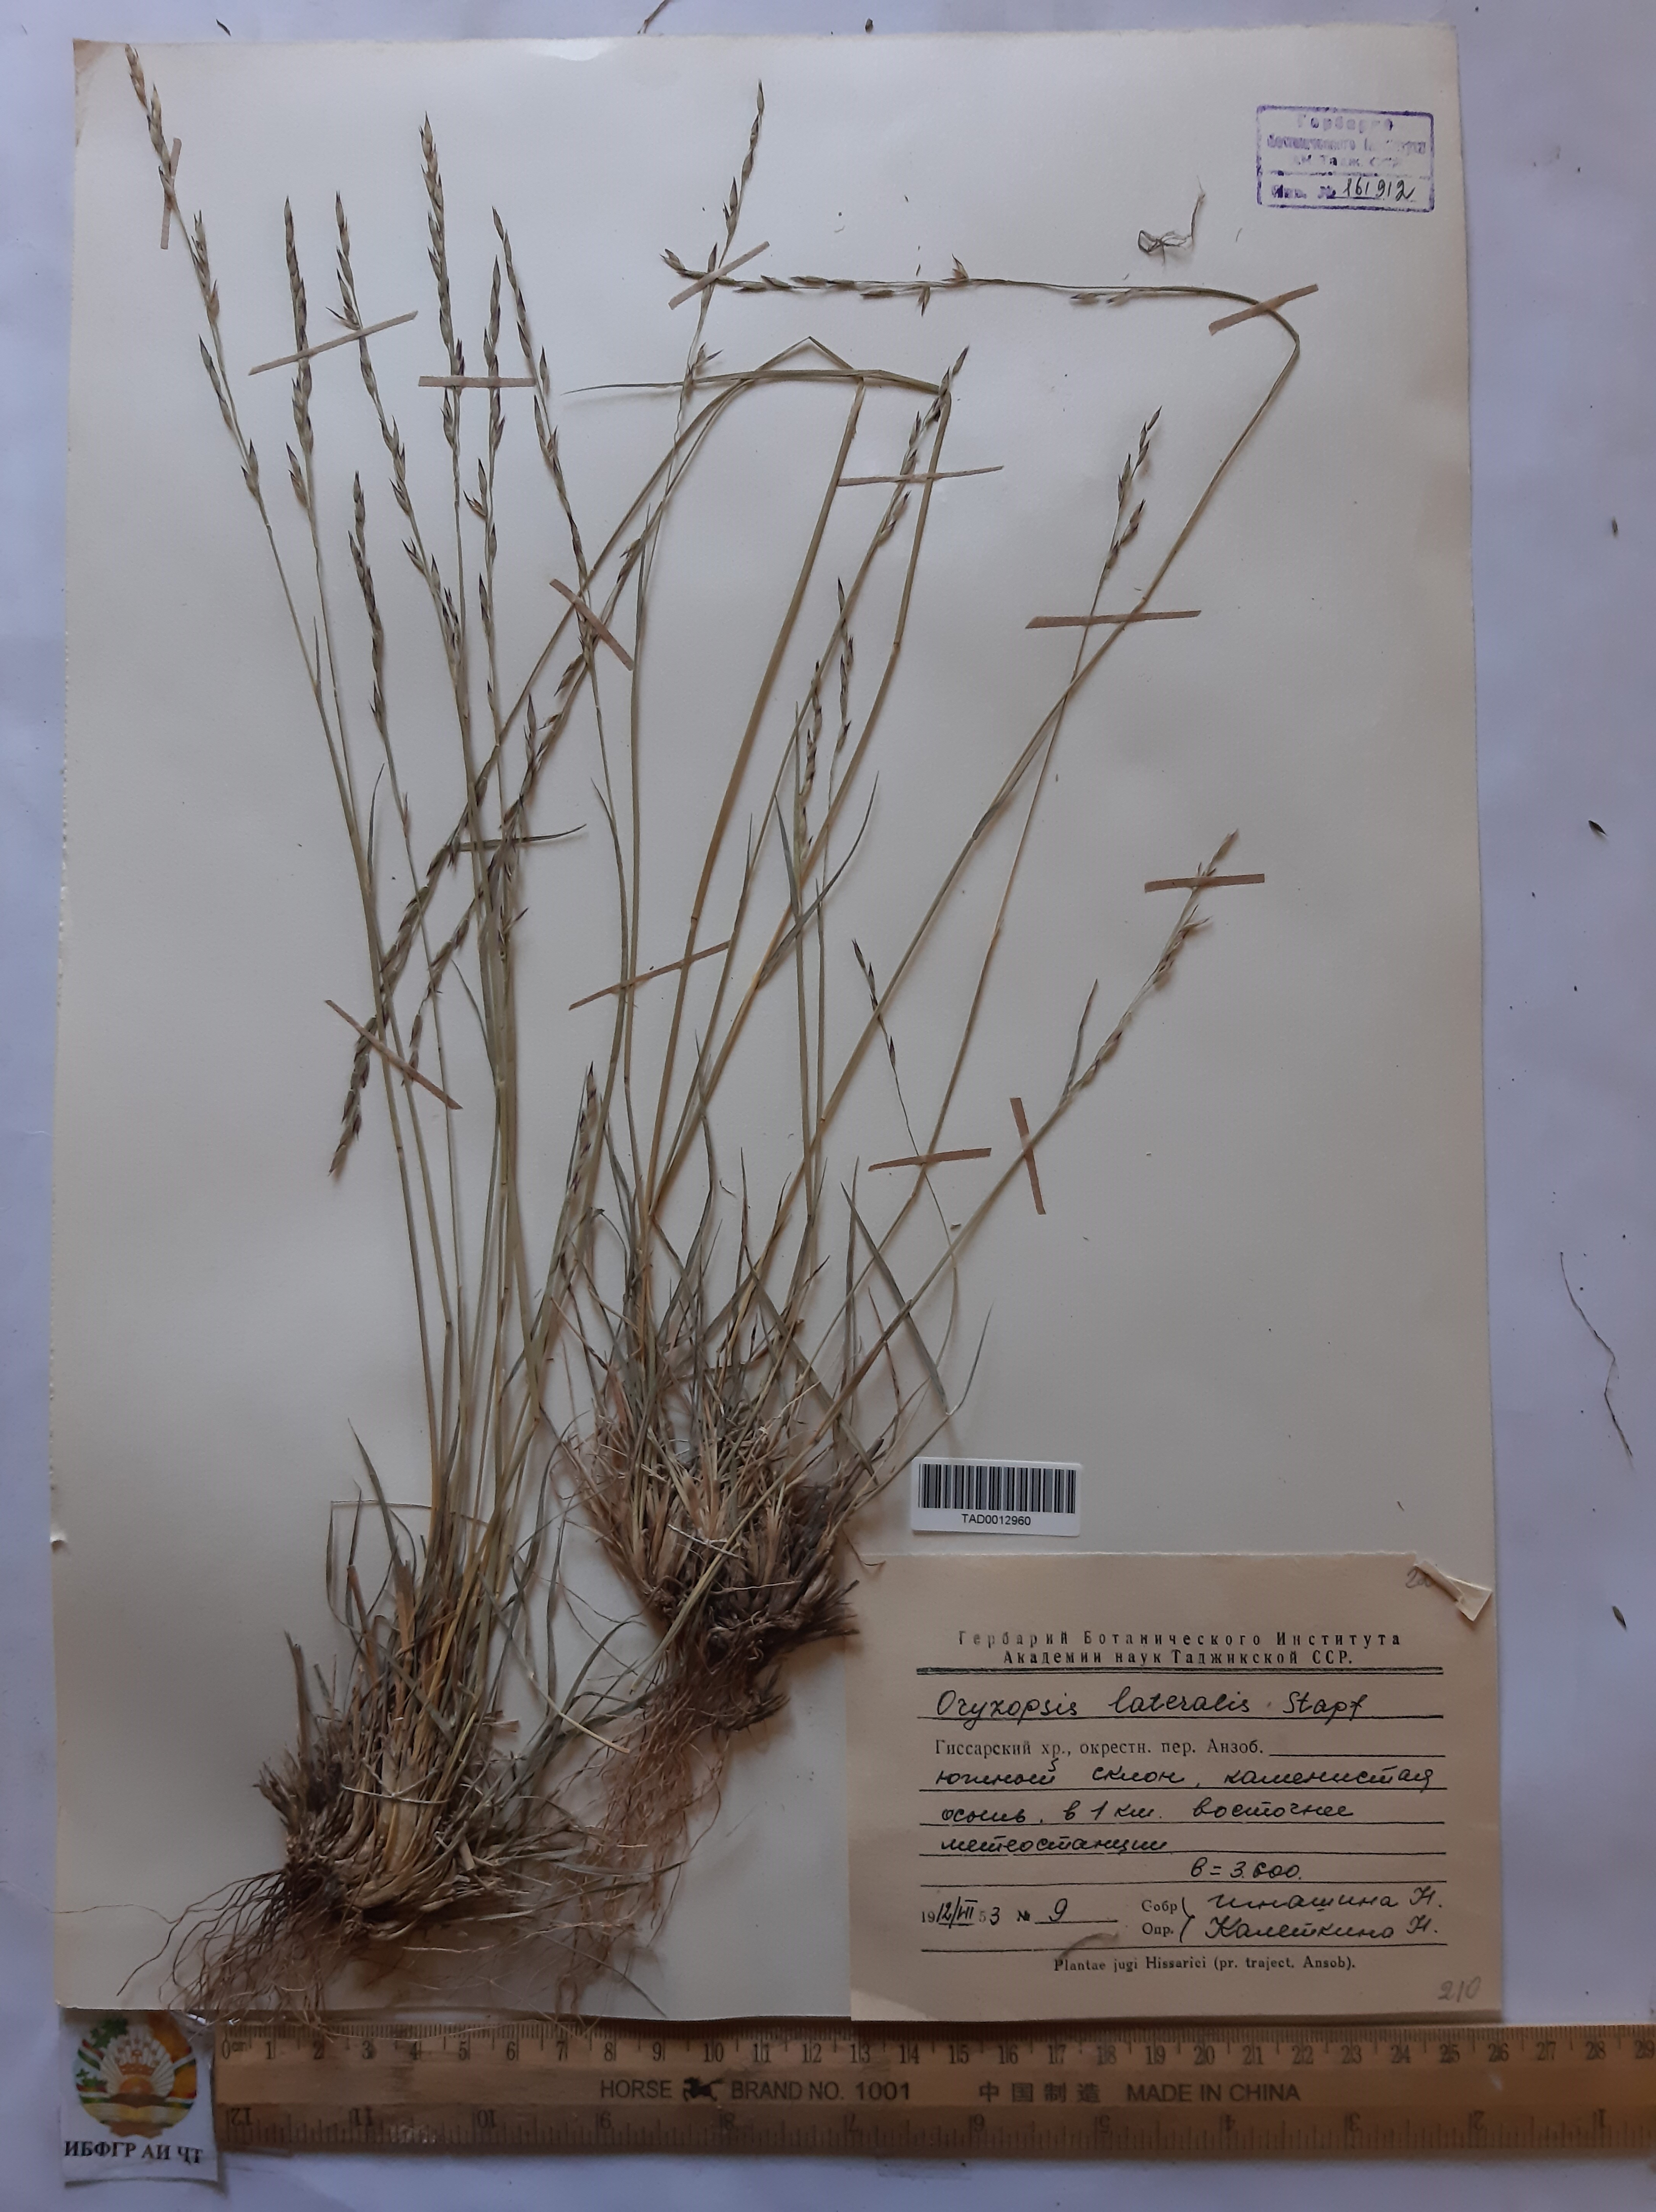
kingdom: Plantae
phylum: Tracheophyta
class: Liliopsida
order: Poales
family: Poaceae
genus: Piptatherum
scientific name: Piptatherum laterale
